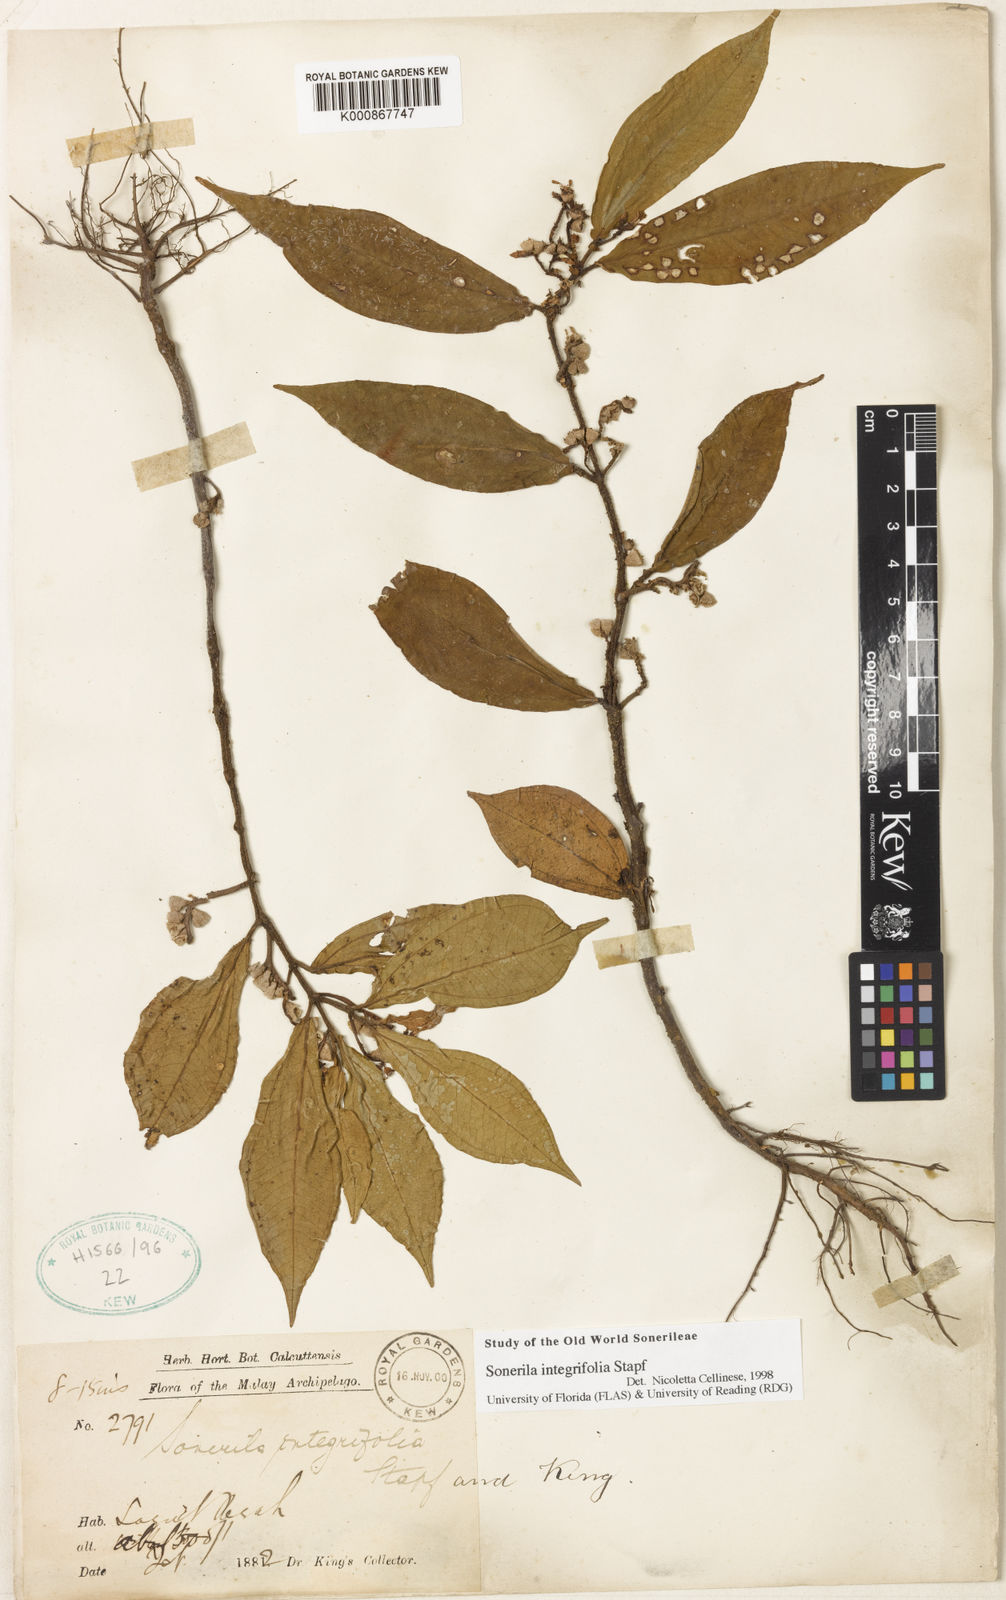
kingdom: Plantae
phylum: Tracheophyta
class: Magnoliopsida
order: Myrtales
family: Melastomataceae
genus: Sonerila
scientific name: Sonerila integrifolia
